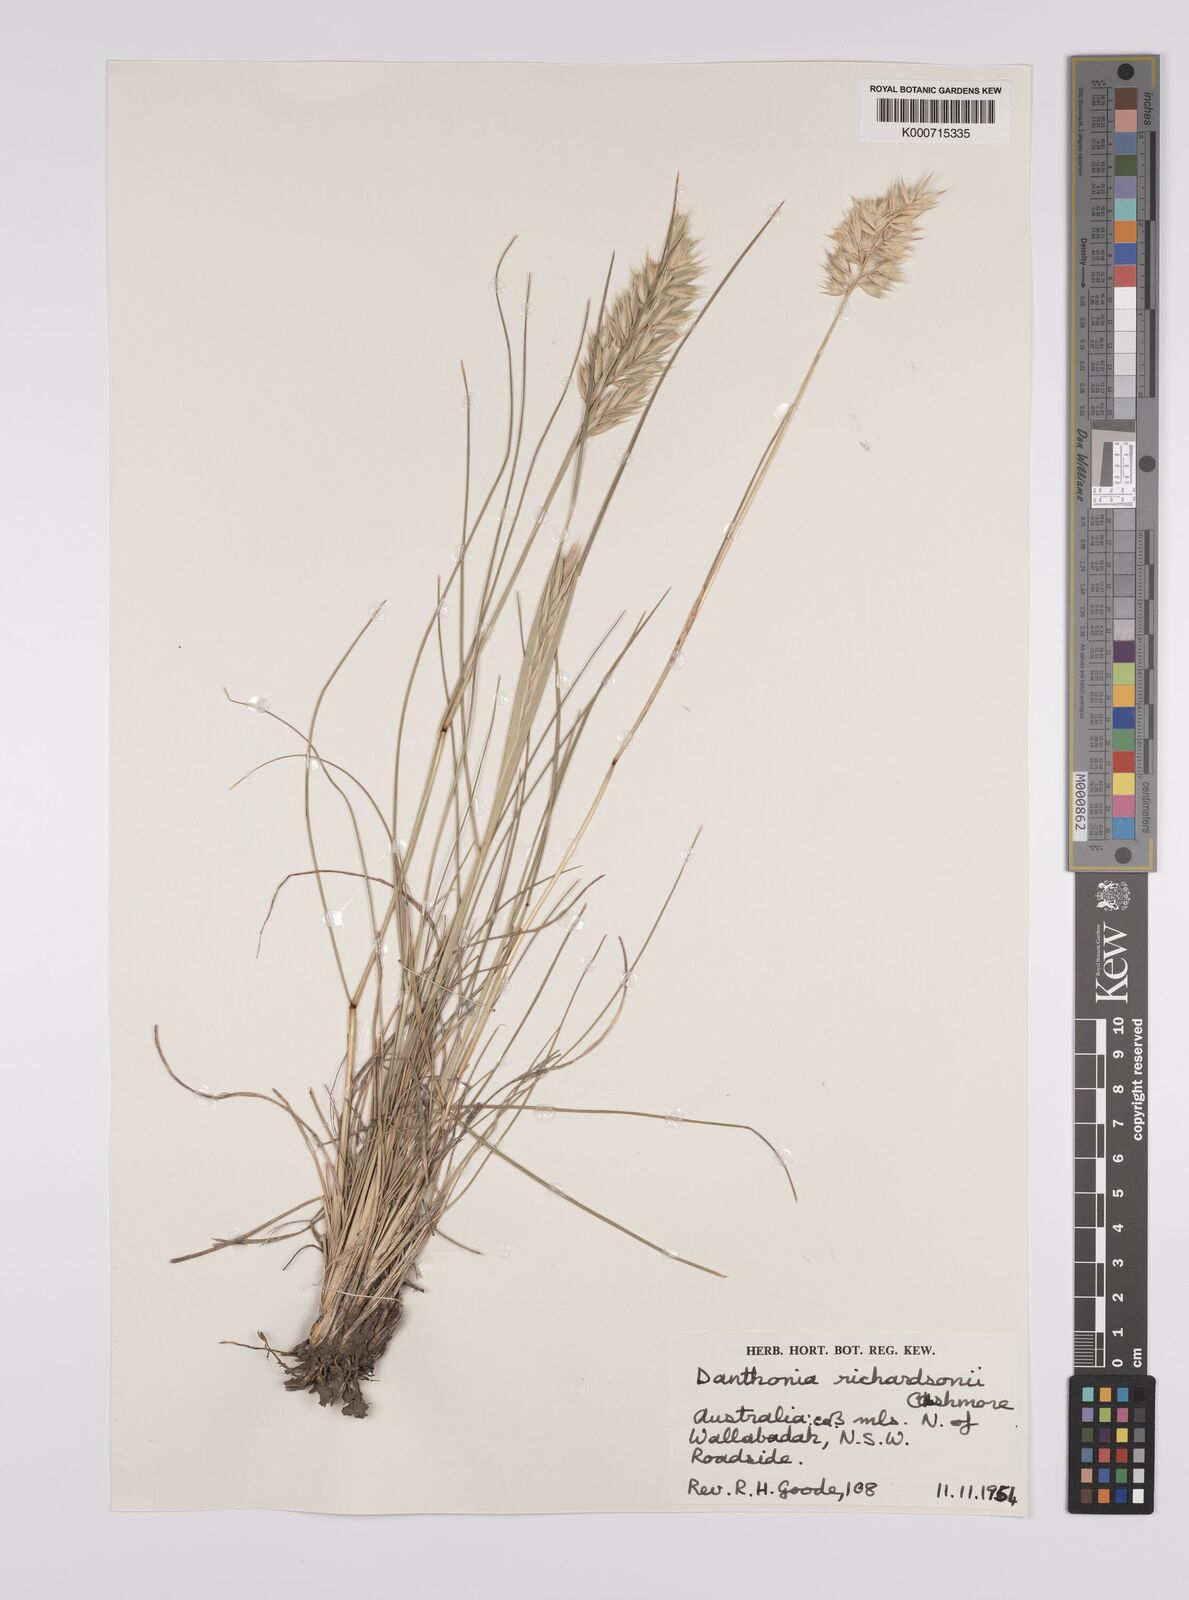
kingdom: Plantae
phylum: Tracheophyta
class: Liliopsida
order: Poales
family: Poaceae
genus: Rytidosperma
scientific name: Rytidosperma richardsonii
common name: Straw wallaby-grass
